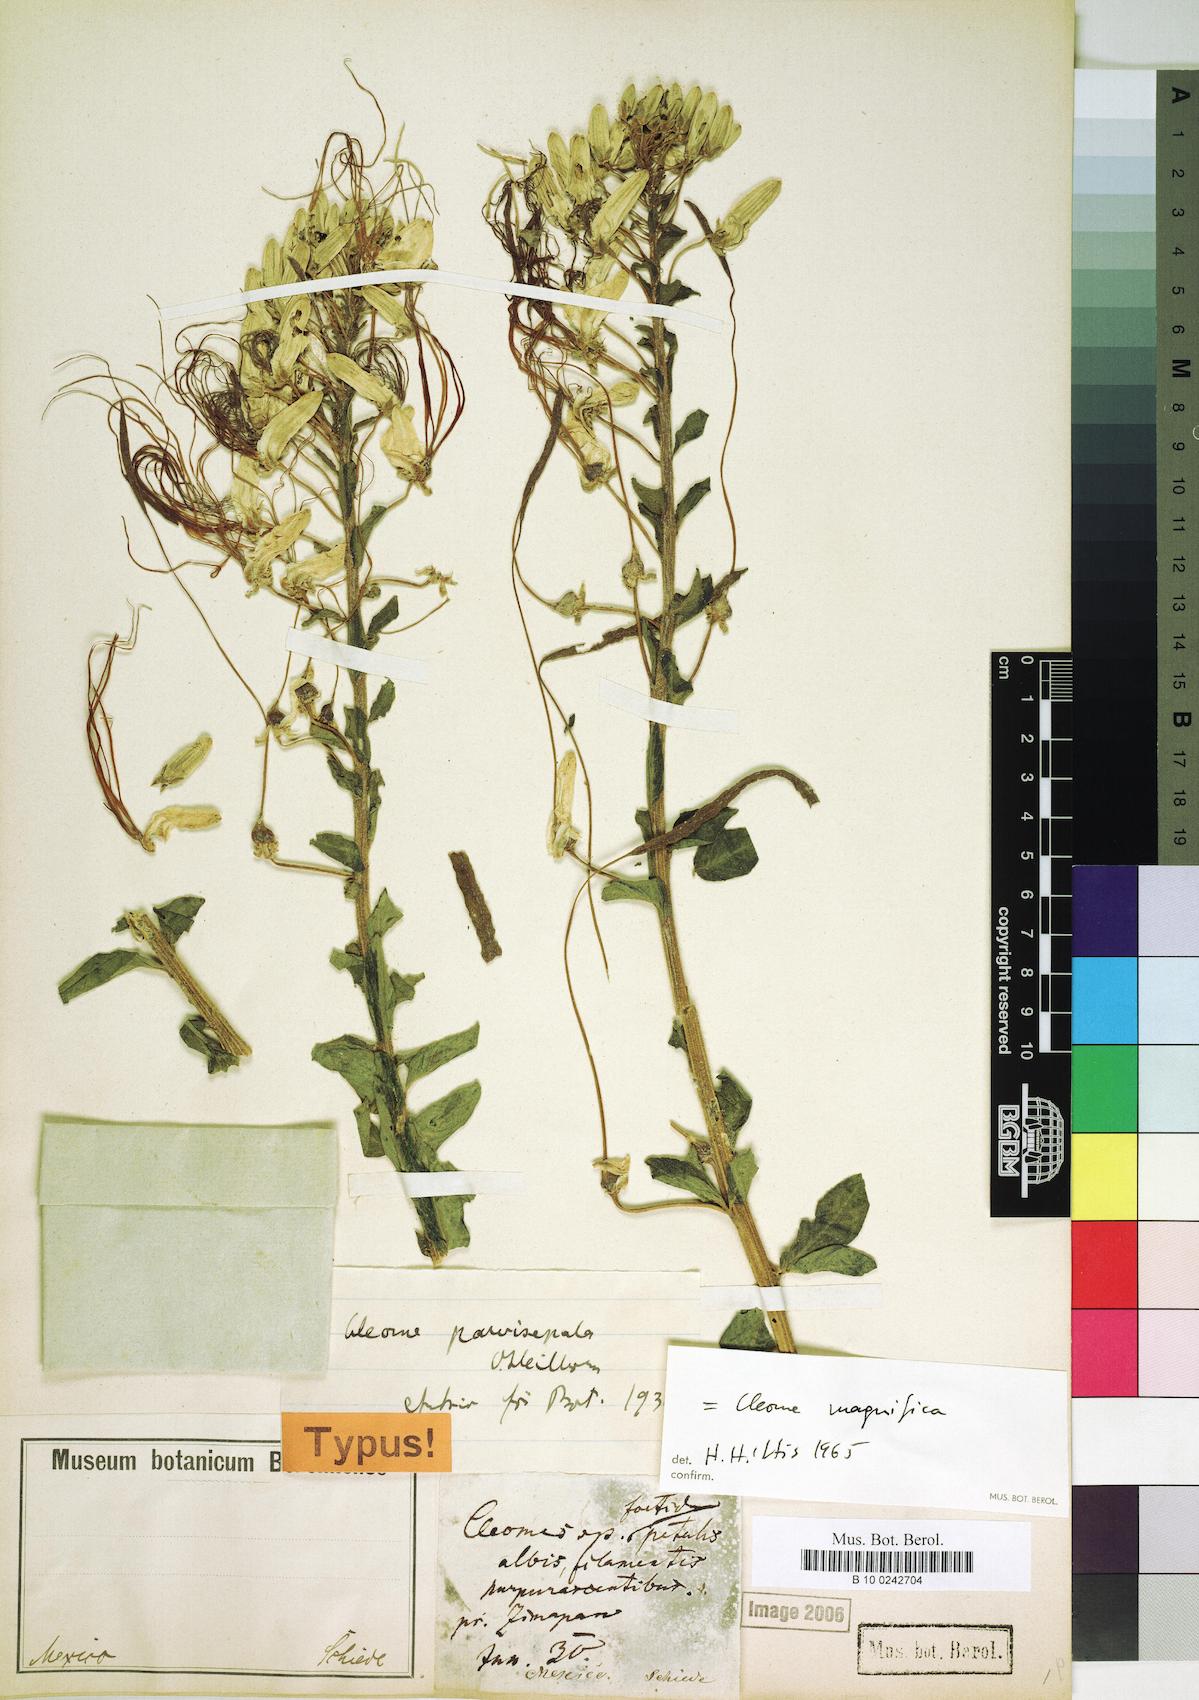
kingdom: Plantae
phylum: Tracheophyta
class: Magnoliopsida
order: Brassicales
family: Cleomaceae
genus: Andinocleome
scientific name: Andinocleome magnifica
